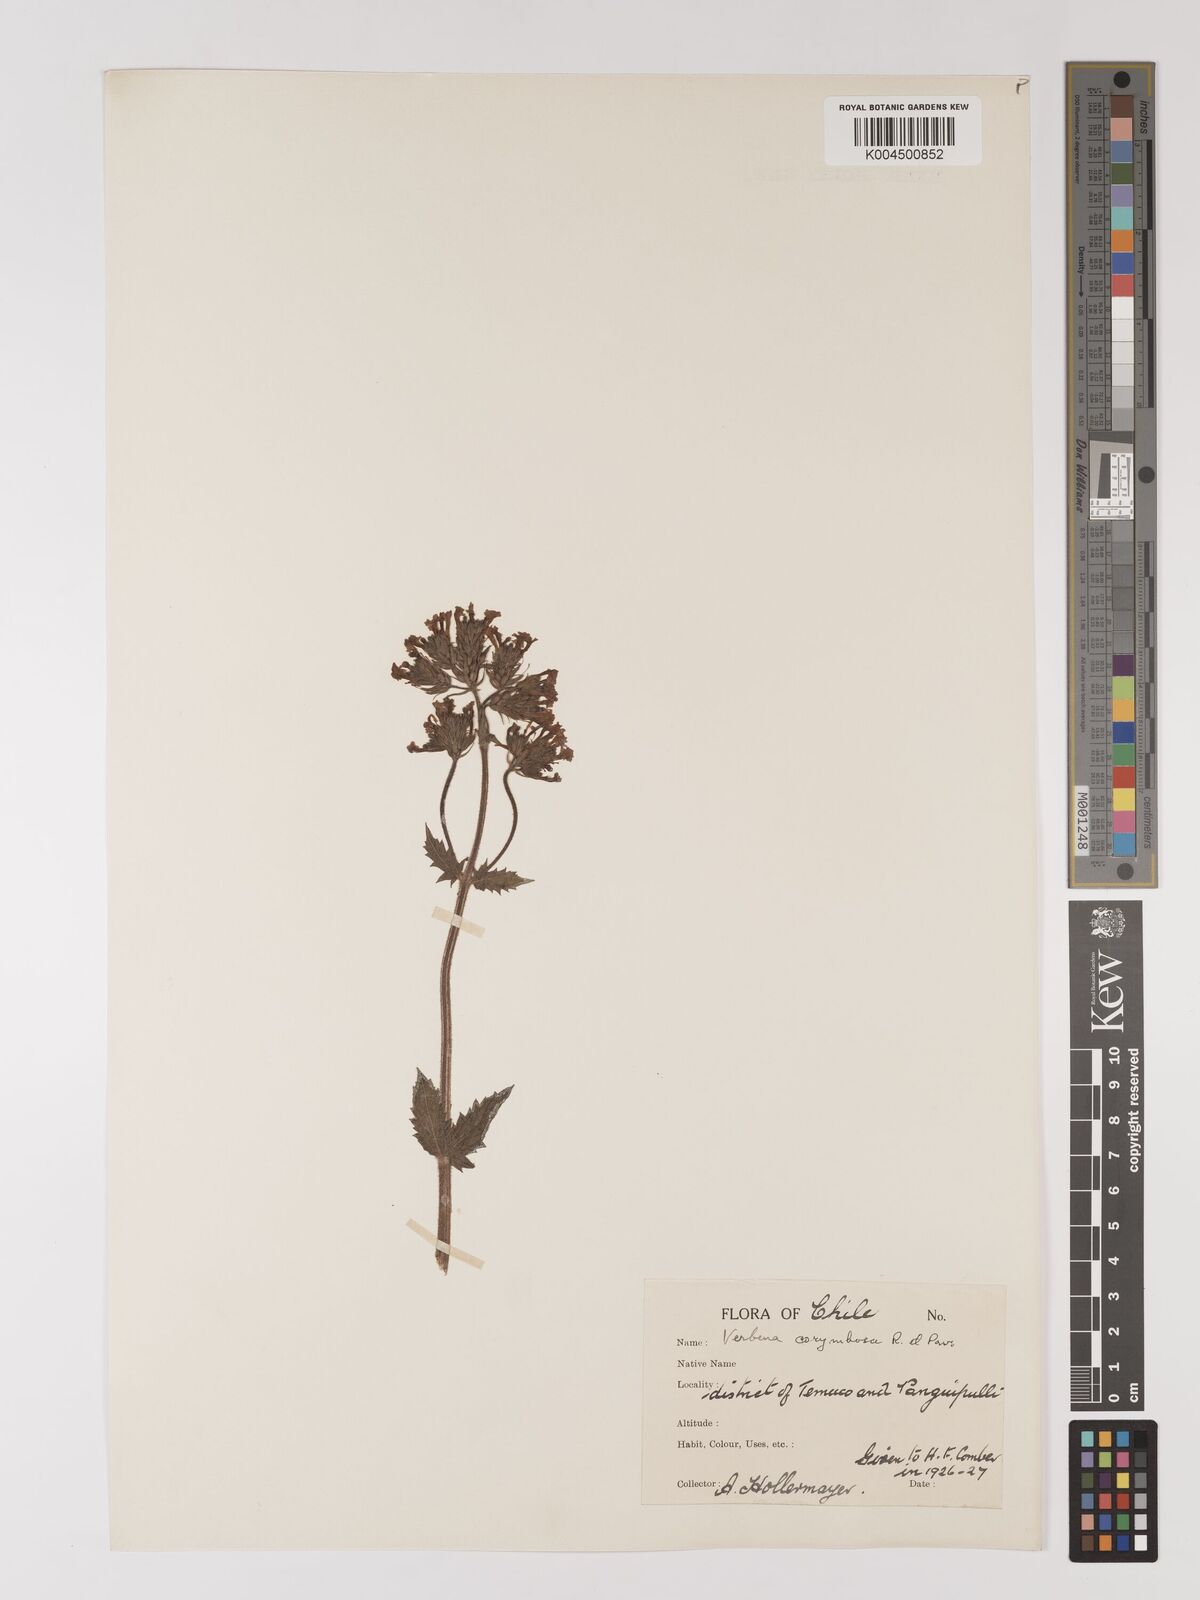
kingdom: Plantae
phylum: Tracheophyta
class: Magnoliopsida
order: Lamiales
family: Verbenaceae
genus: Verbena
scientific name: Verbena
